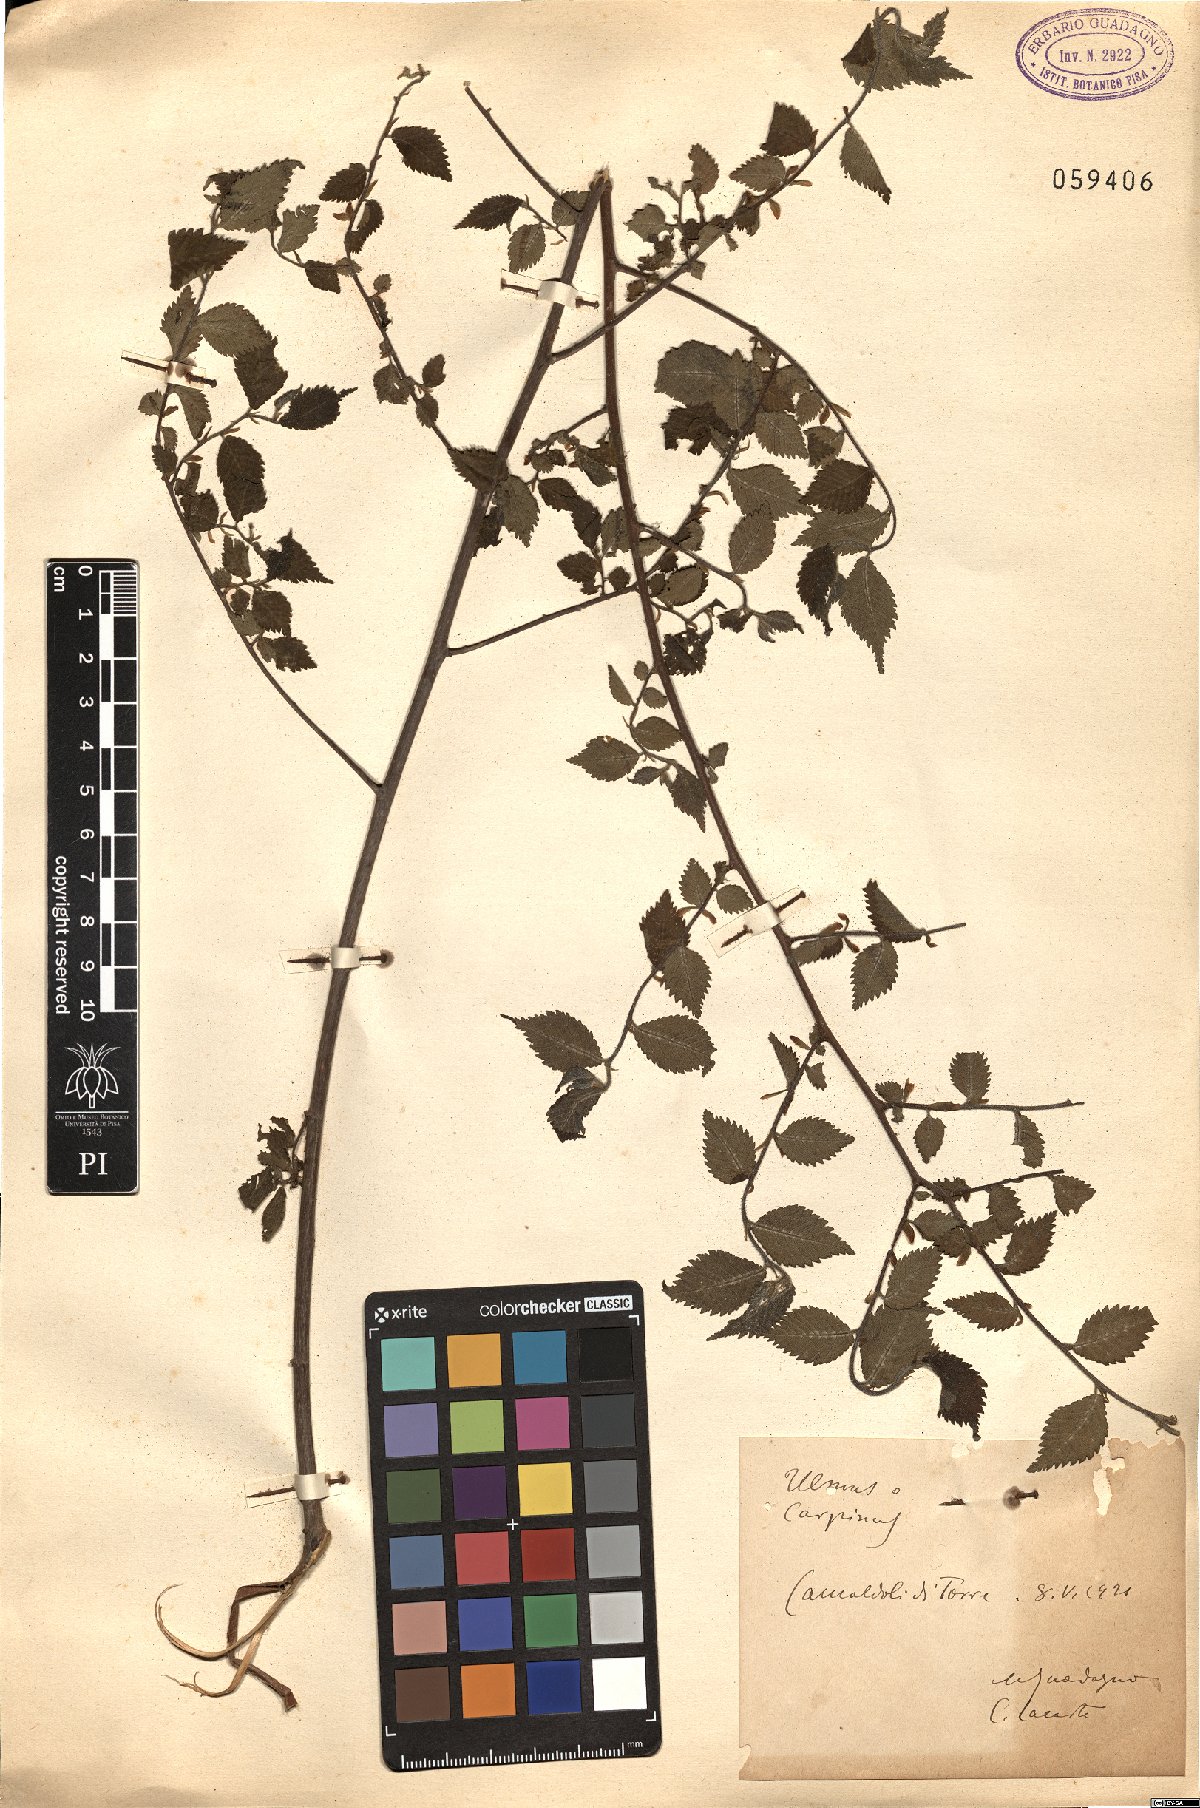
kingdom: Plantae
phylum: Tracheophyta
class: Magnoliopsida
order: Rosales
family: Ulmaceae
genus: Ulmus
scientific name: Ulmus
